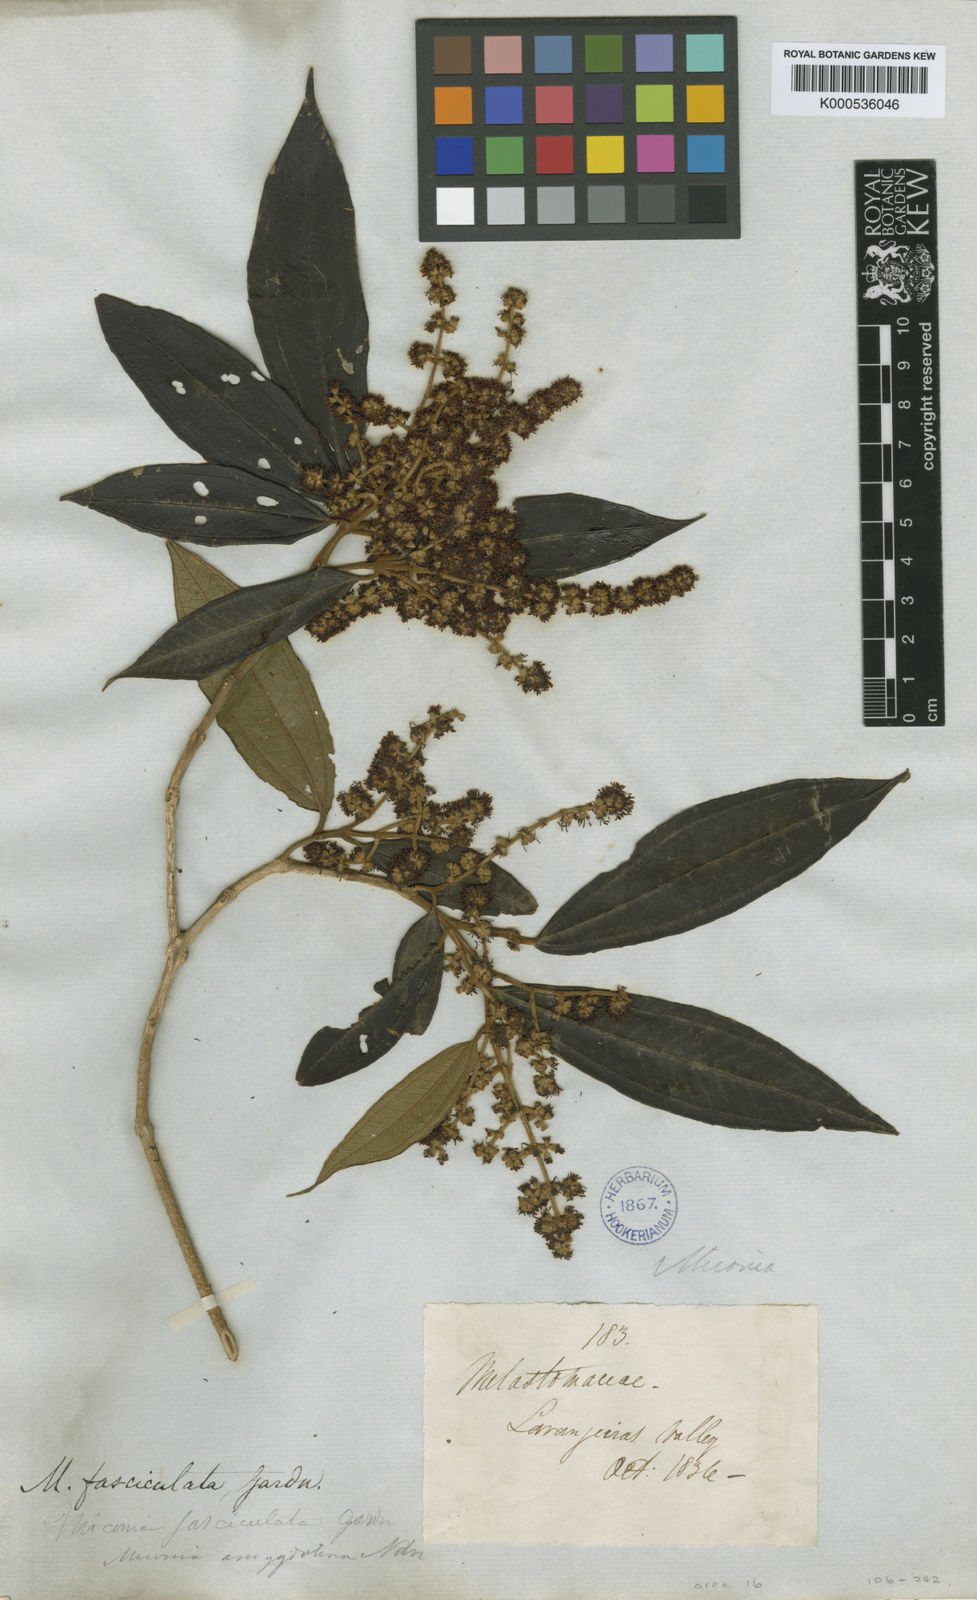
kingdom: Plantae
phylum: Tracheophyta
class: Magnoliopsida
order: Myrtales
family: Melastomataceae
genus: Miconia
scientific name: Miconia fasciculata
